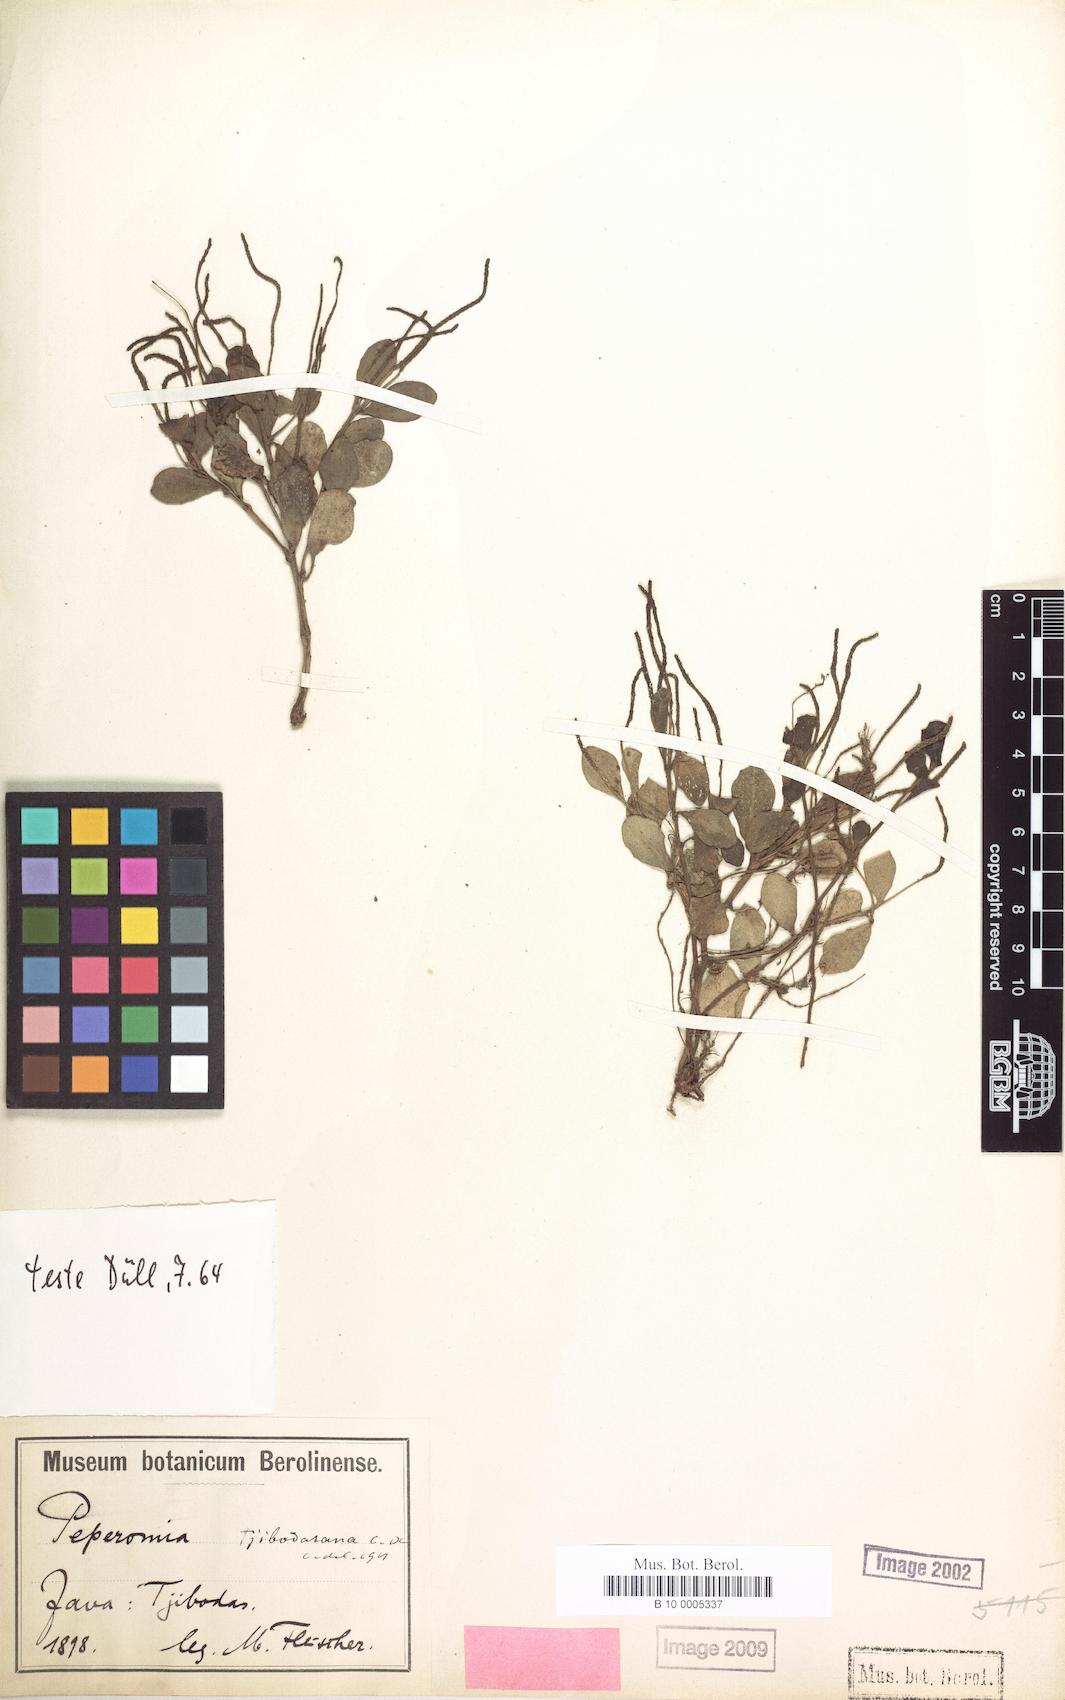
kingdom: Plantae
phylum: Tracheophyta
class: Magnoliopsida
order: Piperales
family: Piperaceae
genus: Peperomia
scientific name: Peperomia tjibodasana
